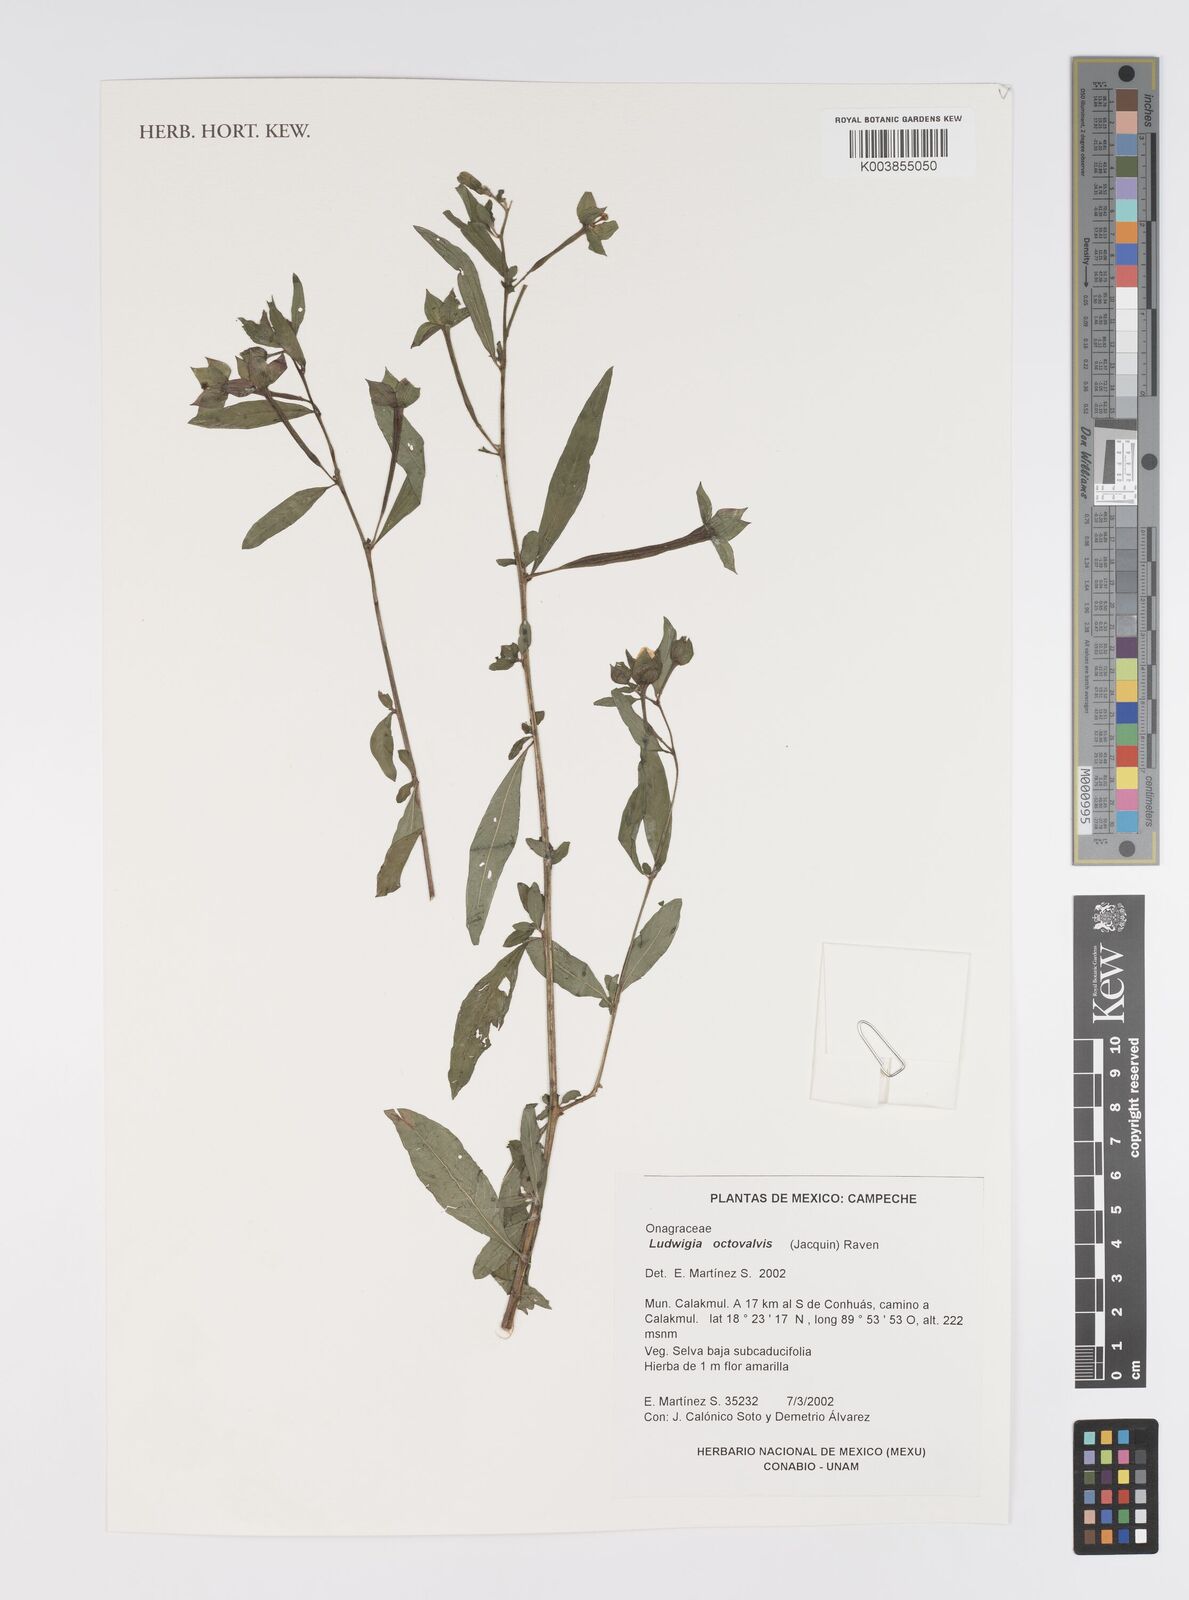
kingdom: Plantae
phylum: Tracheophyta
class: Magnoliopsida
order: Myrtales
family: Onagraceae
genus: Ludwigia
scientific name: Ludwigia octovalvis
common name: Water-primrose
